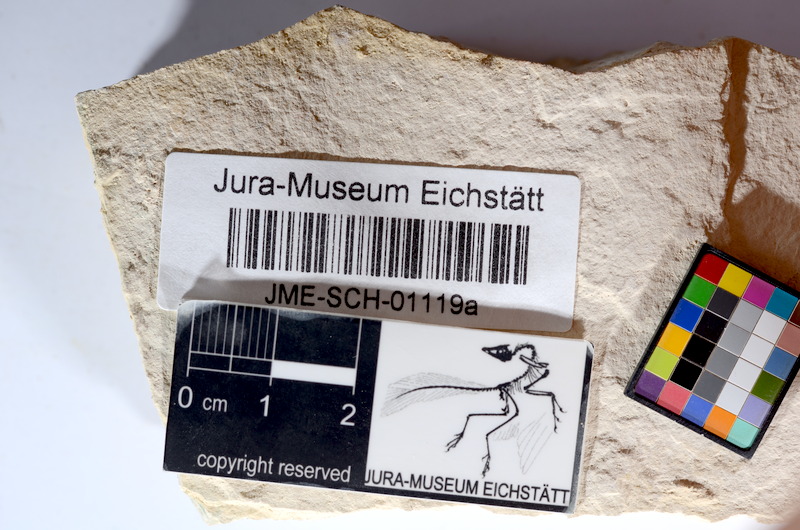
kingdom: Animalia
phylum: Chordata
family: Ascalaboidae
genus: Tharsis
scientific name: Tharsis dubius
